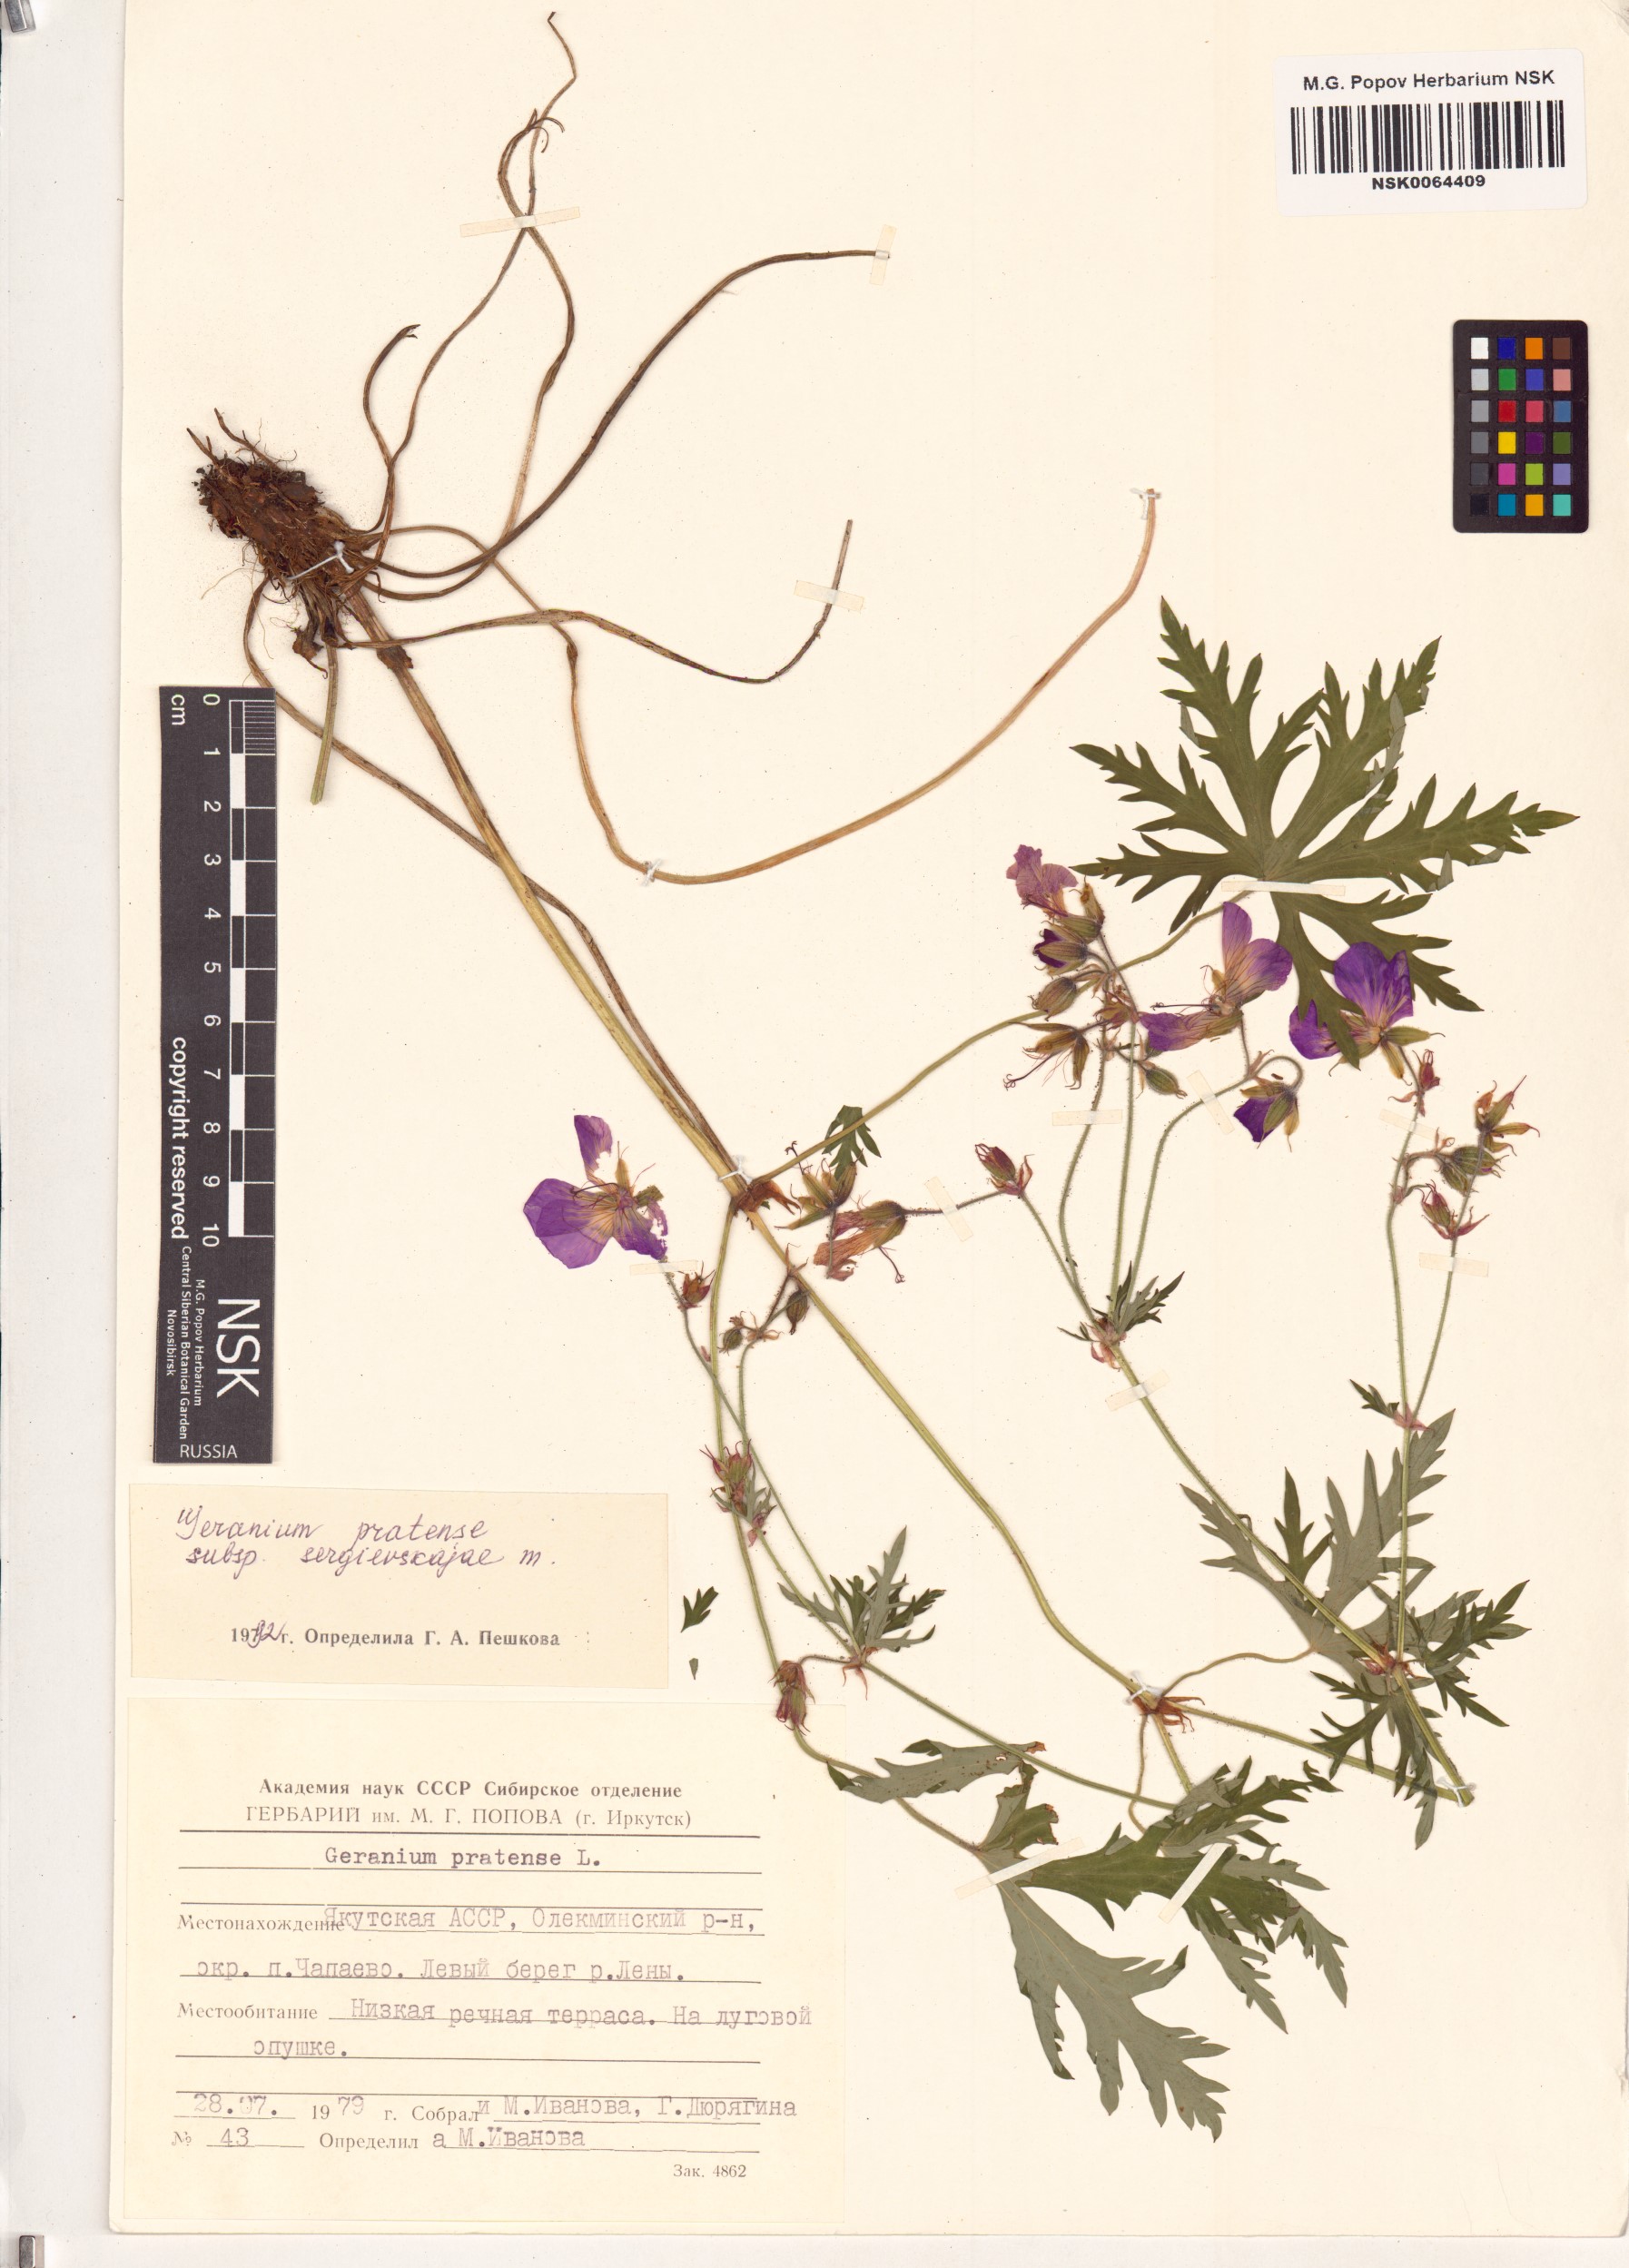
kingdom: Plantae
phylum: Tracheophyta
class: Magnoliopsida
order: Geraniales
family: Geraniaceae
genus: Geranium
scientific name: Geranium pratense
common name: Meadow crane's-bill
